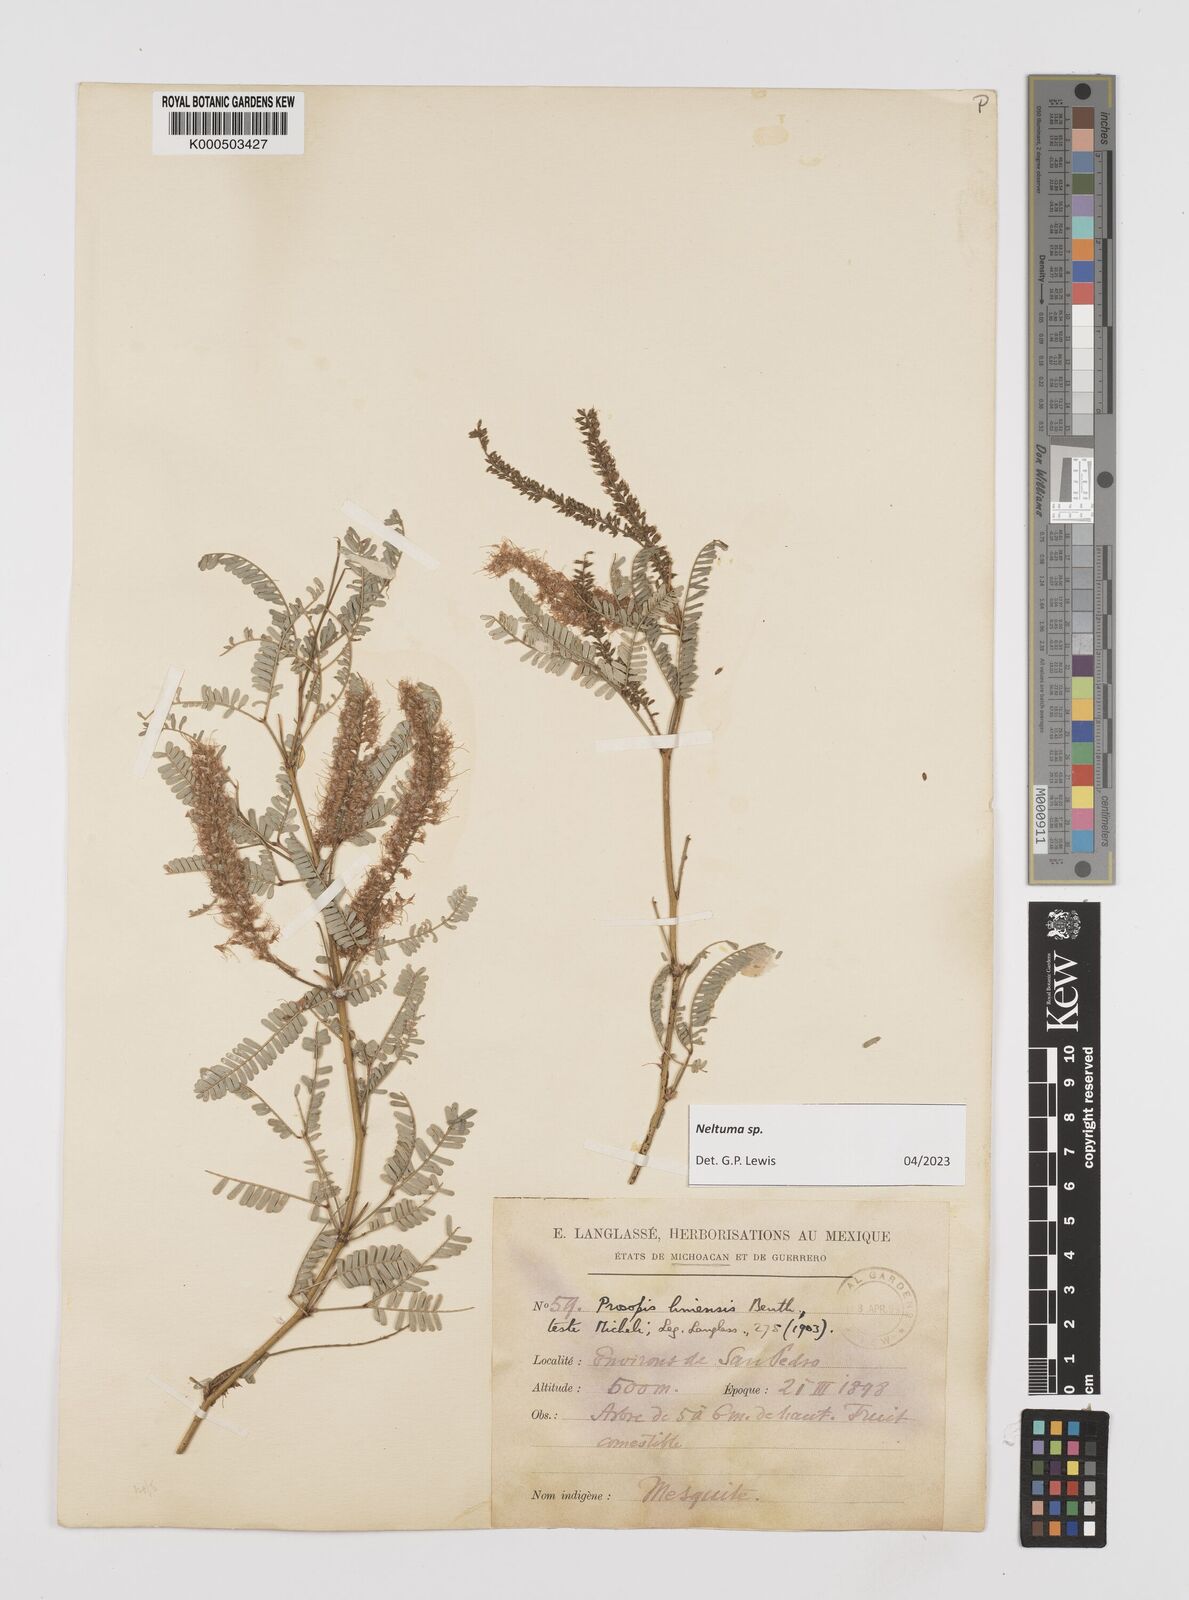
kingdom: Plantae
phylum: Tracheophyta
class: Magnoliopsida
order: Fabales
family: Fabaceae
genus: Prosopis
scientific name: Prosopis juliflora
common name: Mesquite
